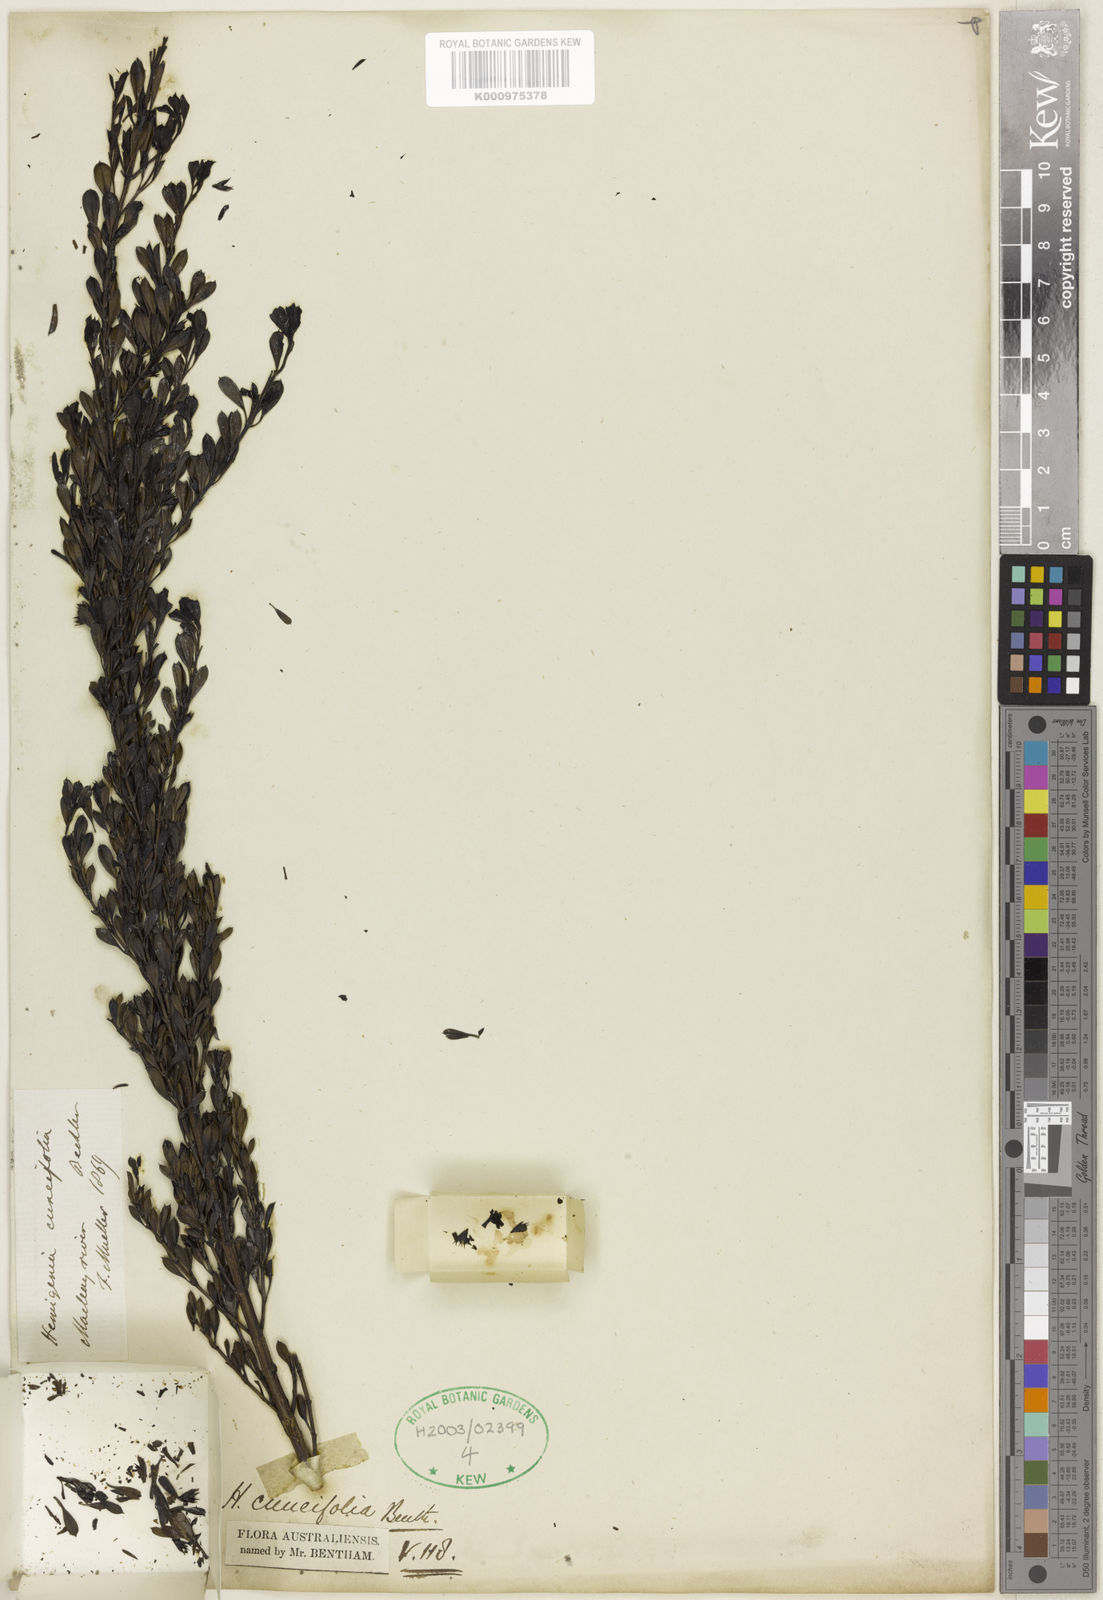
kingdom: Plantae
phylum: Tracheophyta
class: Magnoliopsida
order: Lamiales
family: Lamiaceae
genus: Hemigenia
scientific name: Hemigenia cuneifolia
